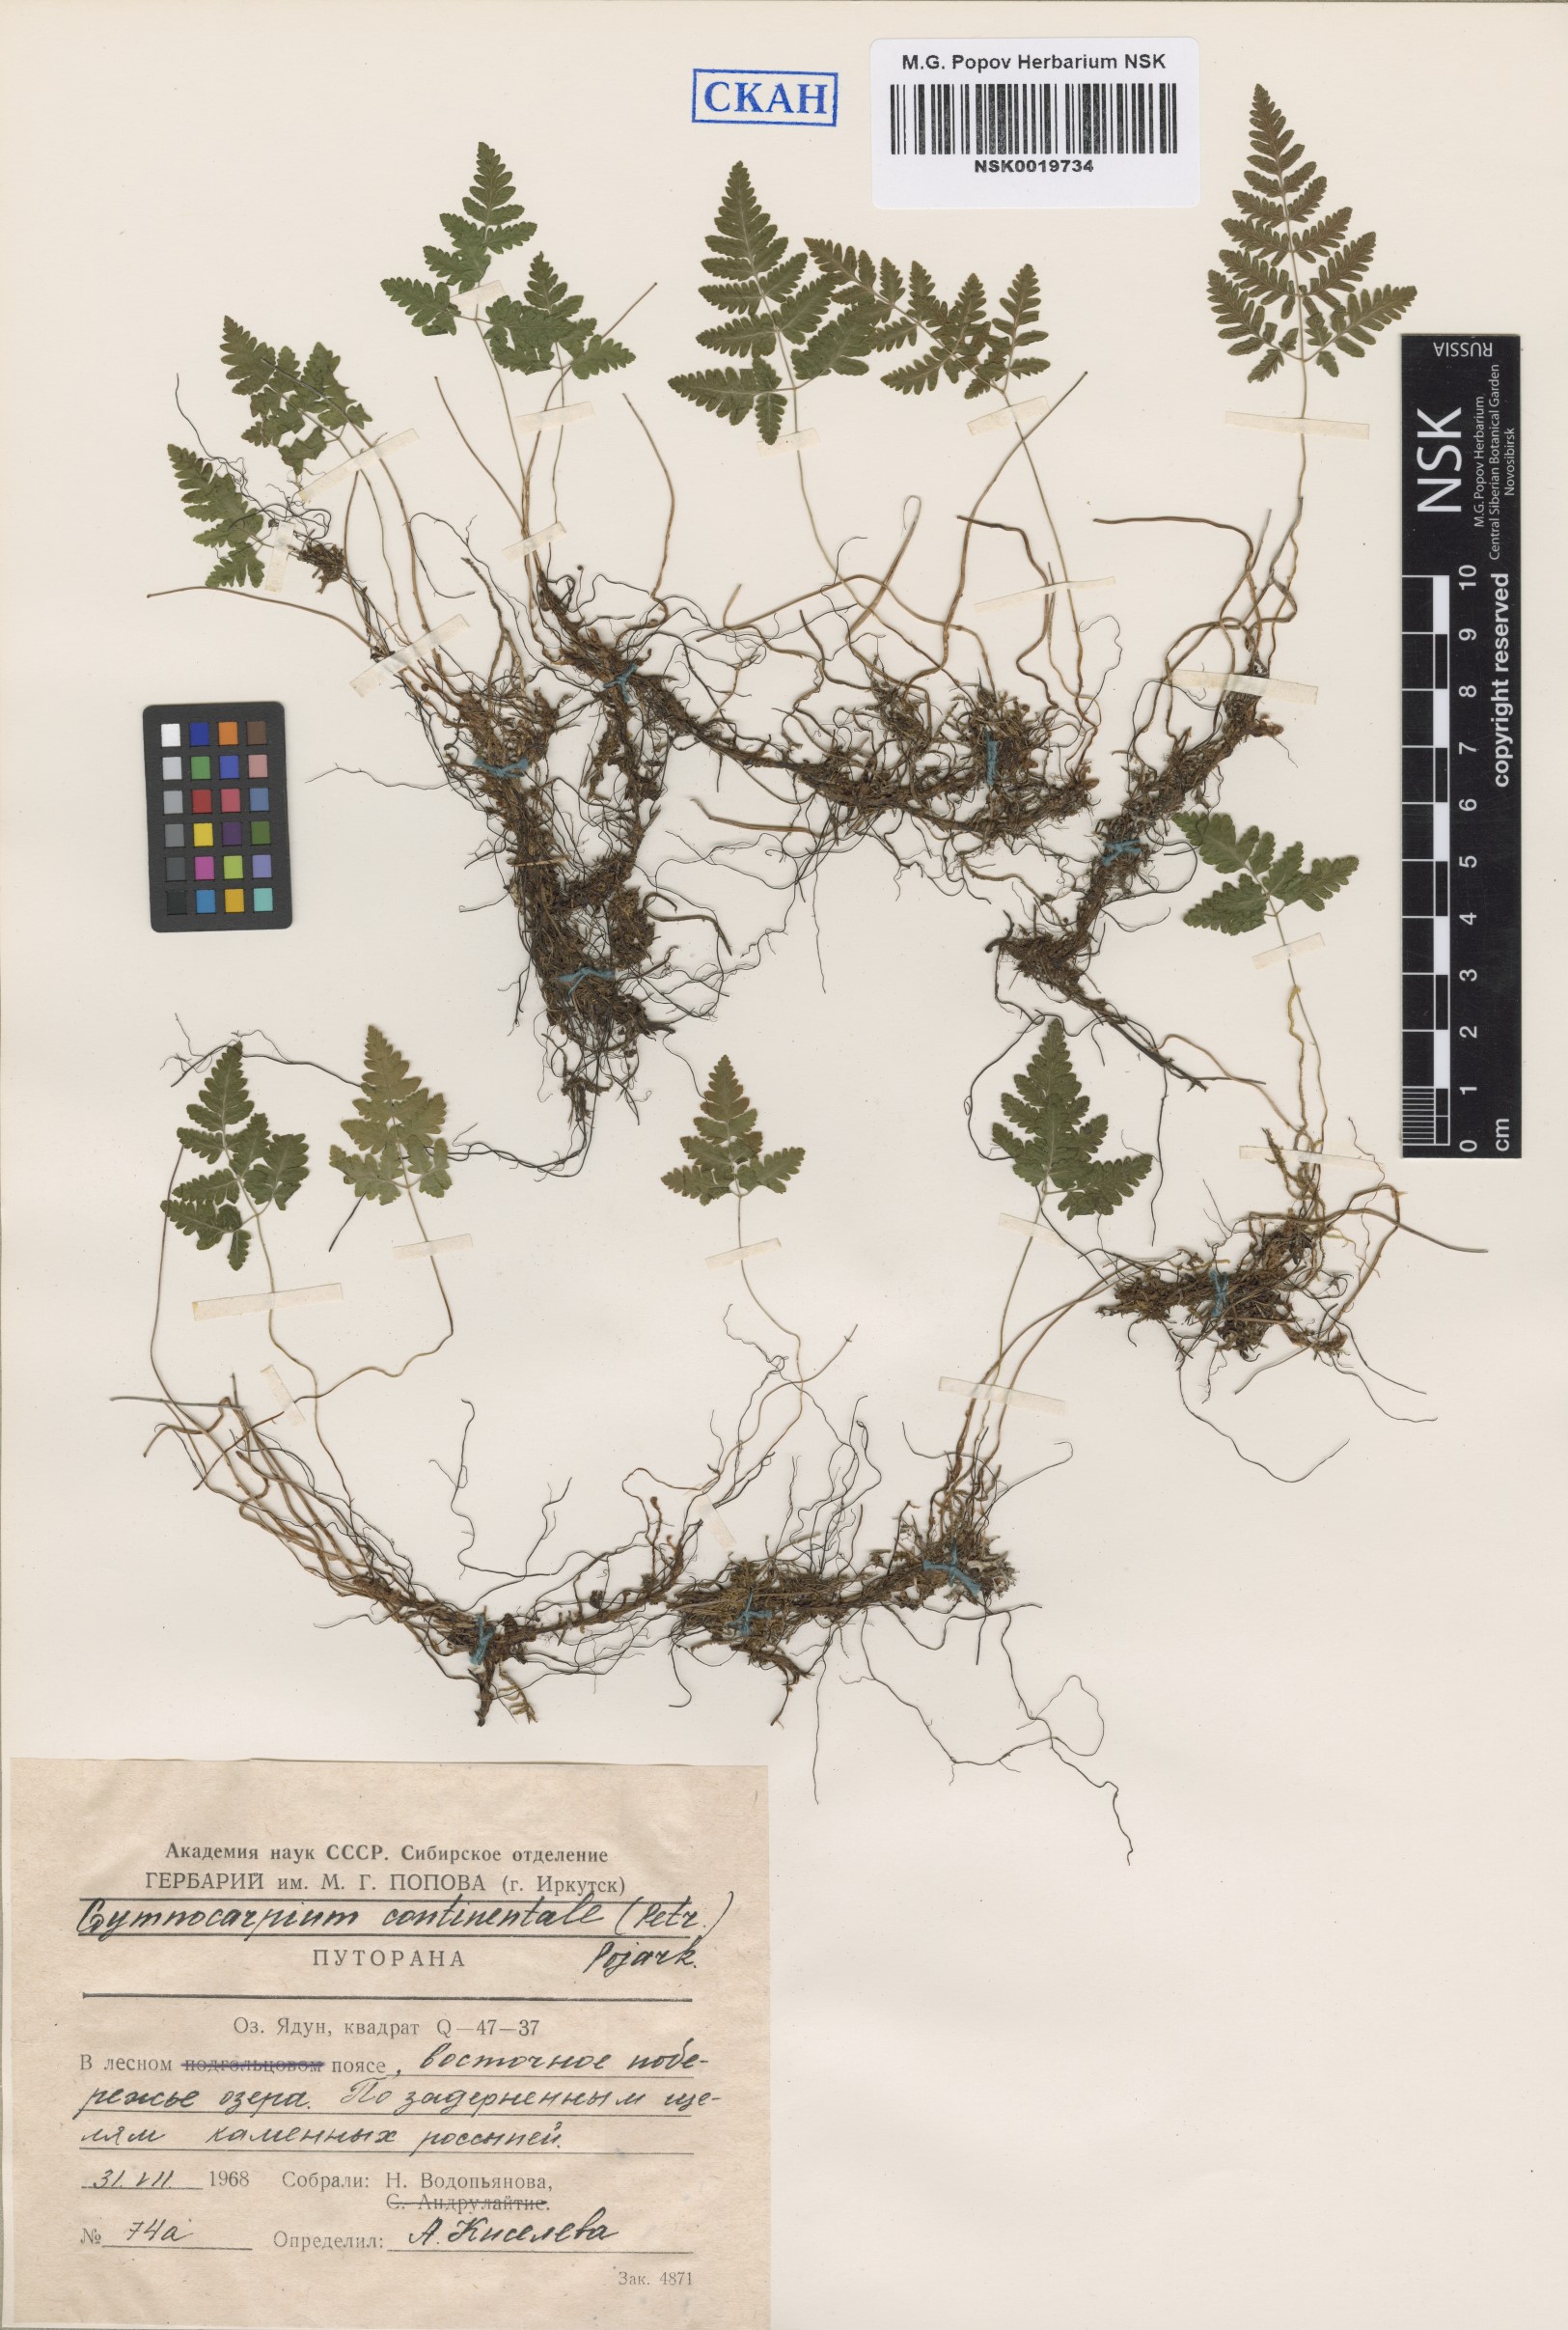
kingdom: Plantae
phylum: Tracheophyta
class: Polypodiopsida
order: Polypodiales
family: Cystopteridaceae
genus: Gymnocarpium
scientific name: Gymnocarpium continentale
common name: Asian oak fern
